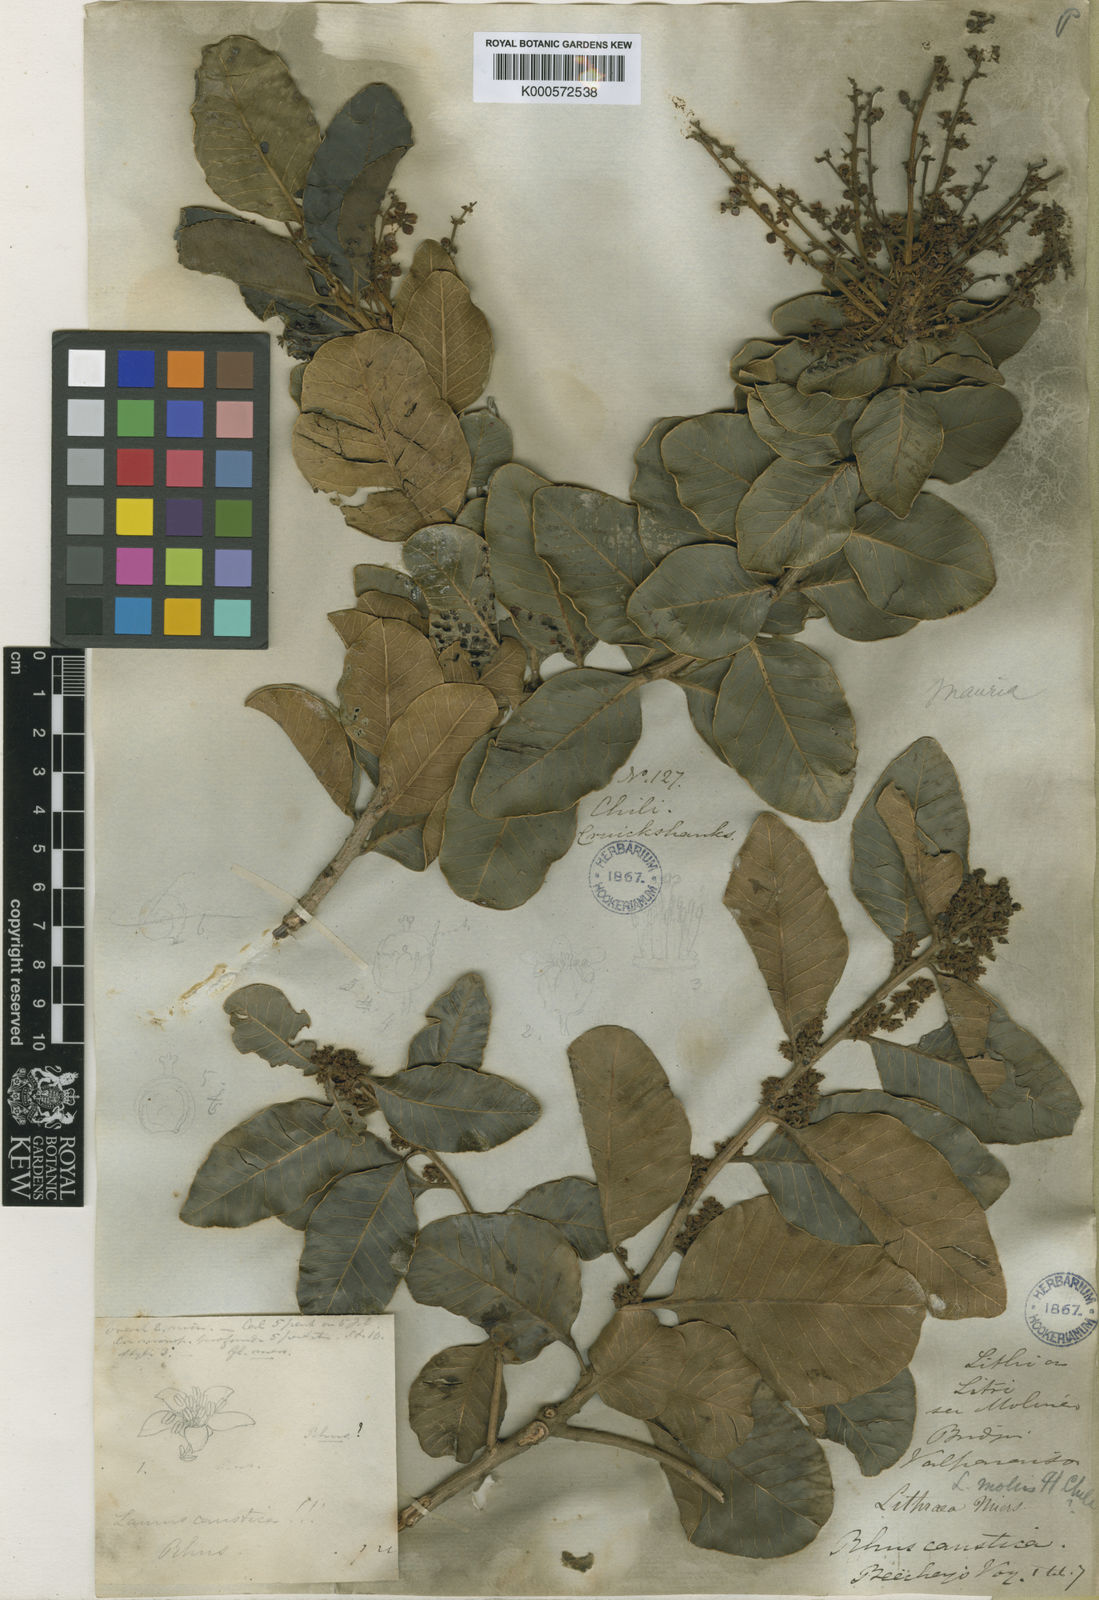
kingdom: Plantae
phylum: Tracheophyta
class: Magnoliopsida
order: Sapindales
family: Anacardiaceae
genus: Lithraea
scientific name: Lithraea caustica
